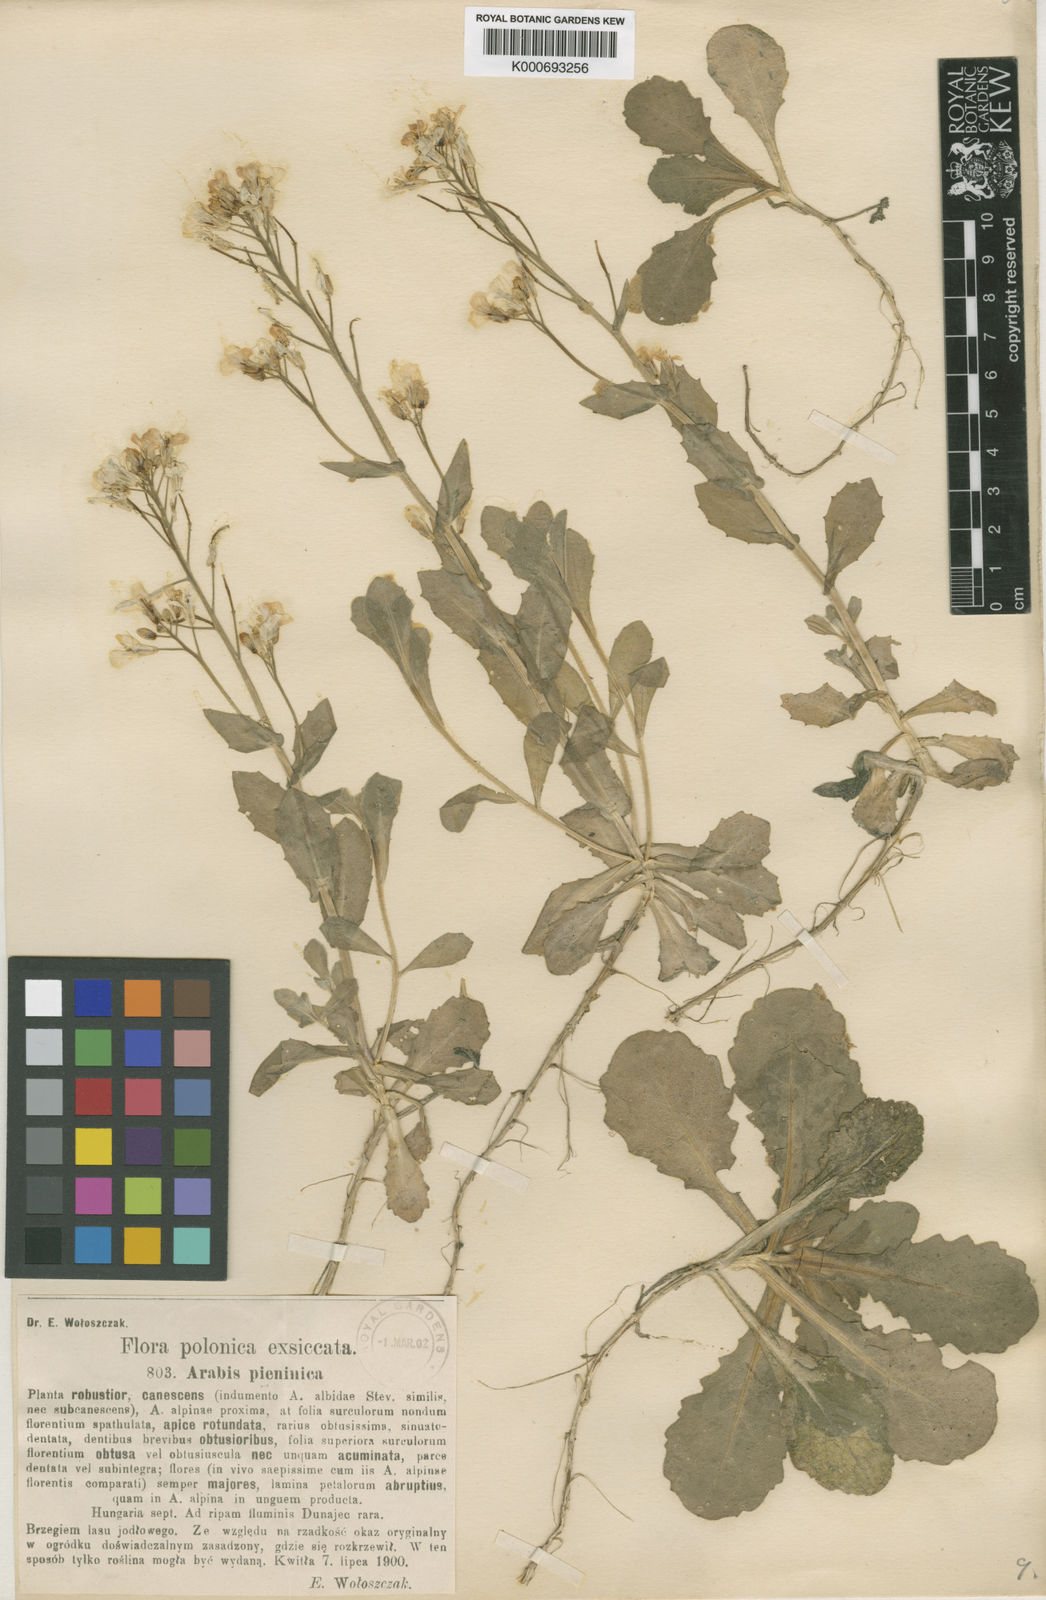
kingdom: Plantae
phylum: Tracheophyta
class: Magnoliopsida
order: Brassicales
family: Brassicaceae
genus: Arabis
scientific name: Arabis
